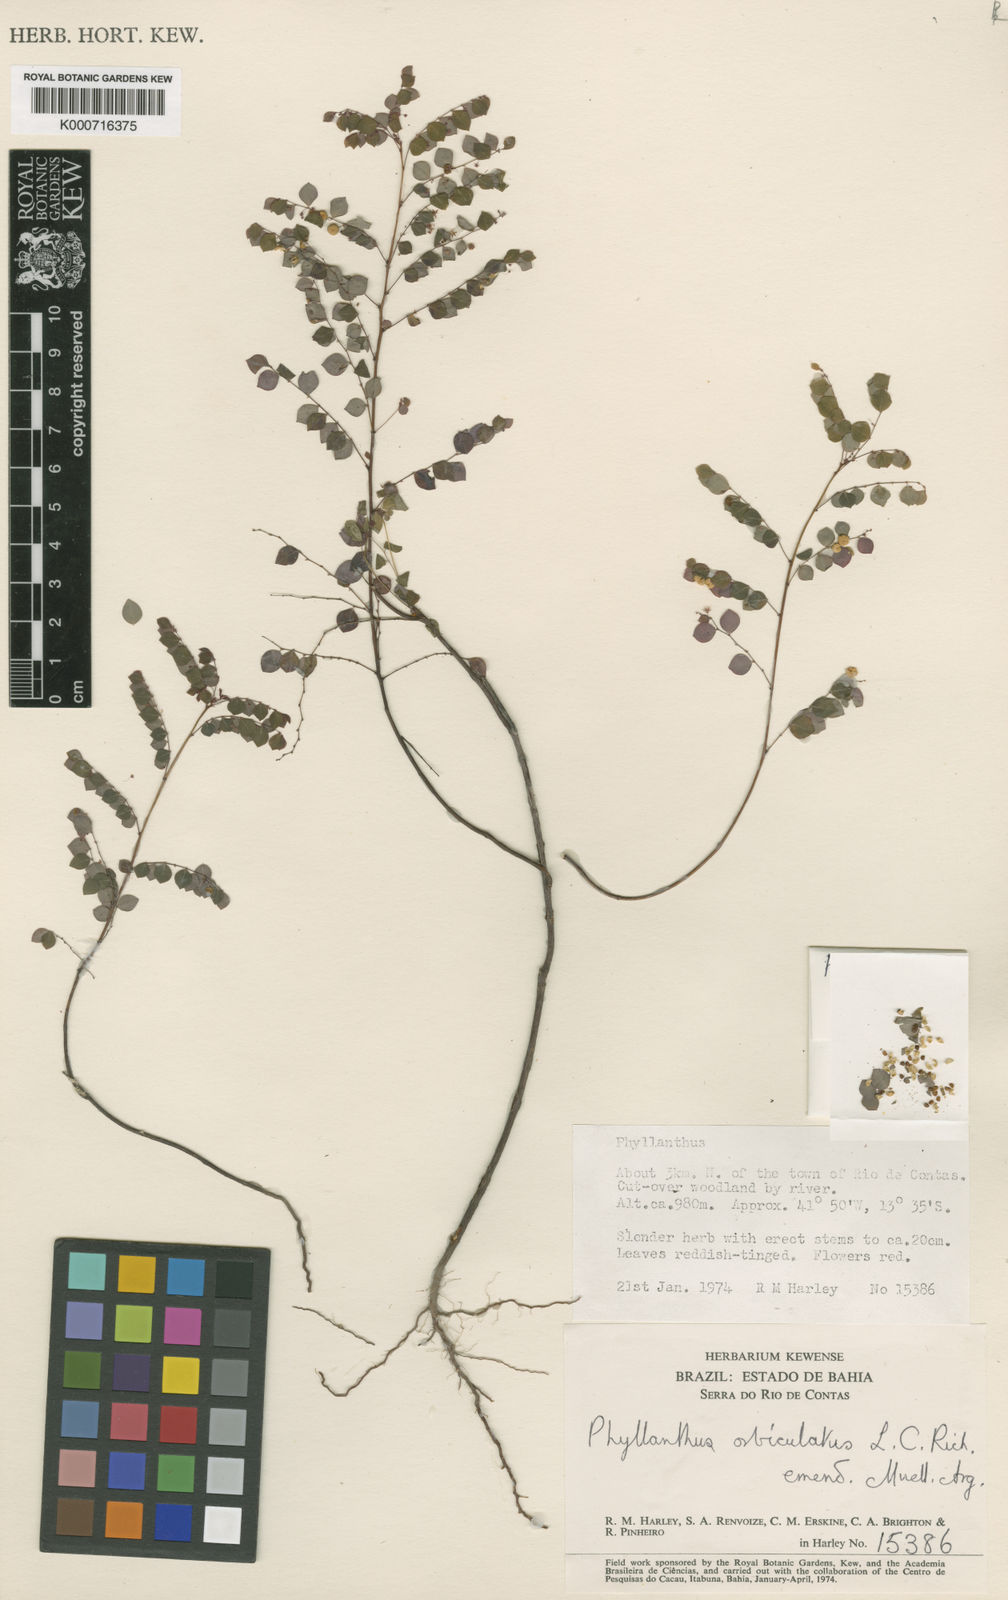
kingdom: Plantae
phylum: Tracheophyta
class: Magnoliopsida
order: Malpighiales
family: Phyllanthaceae
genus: Phyllanthus
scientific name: Phyllanthus orbiculatus
